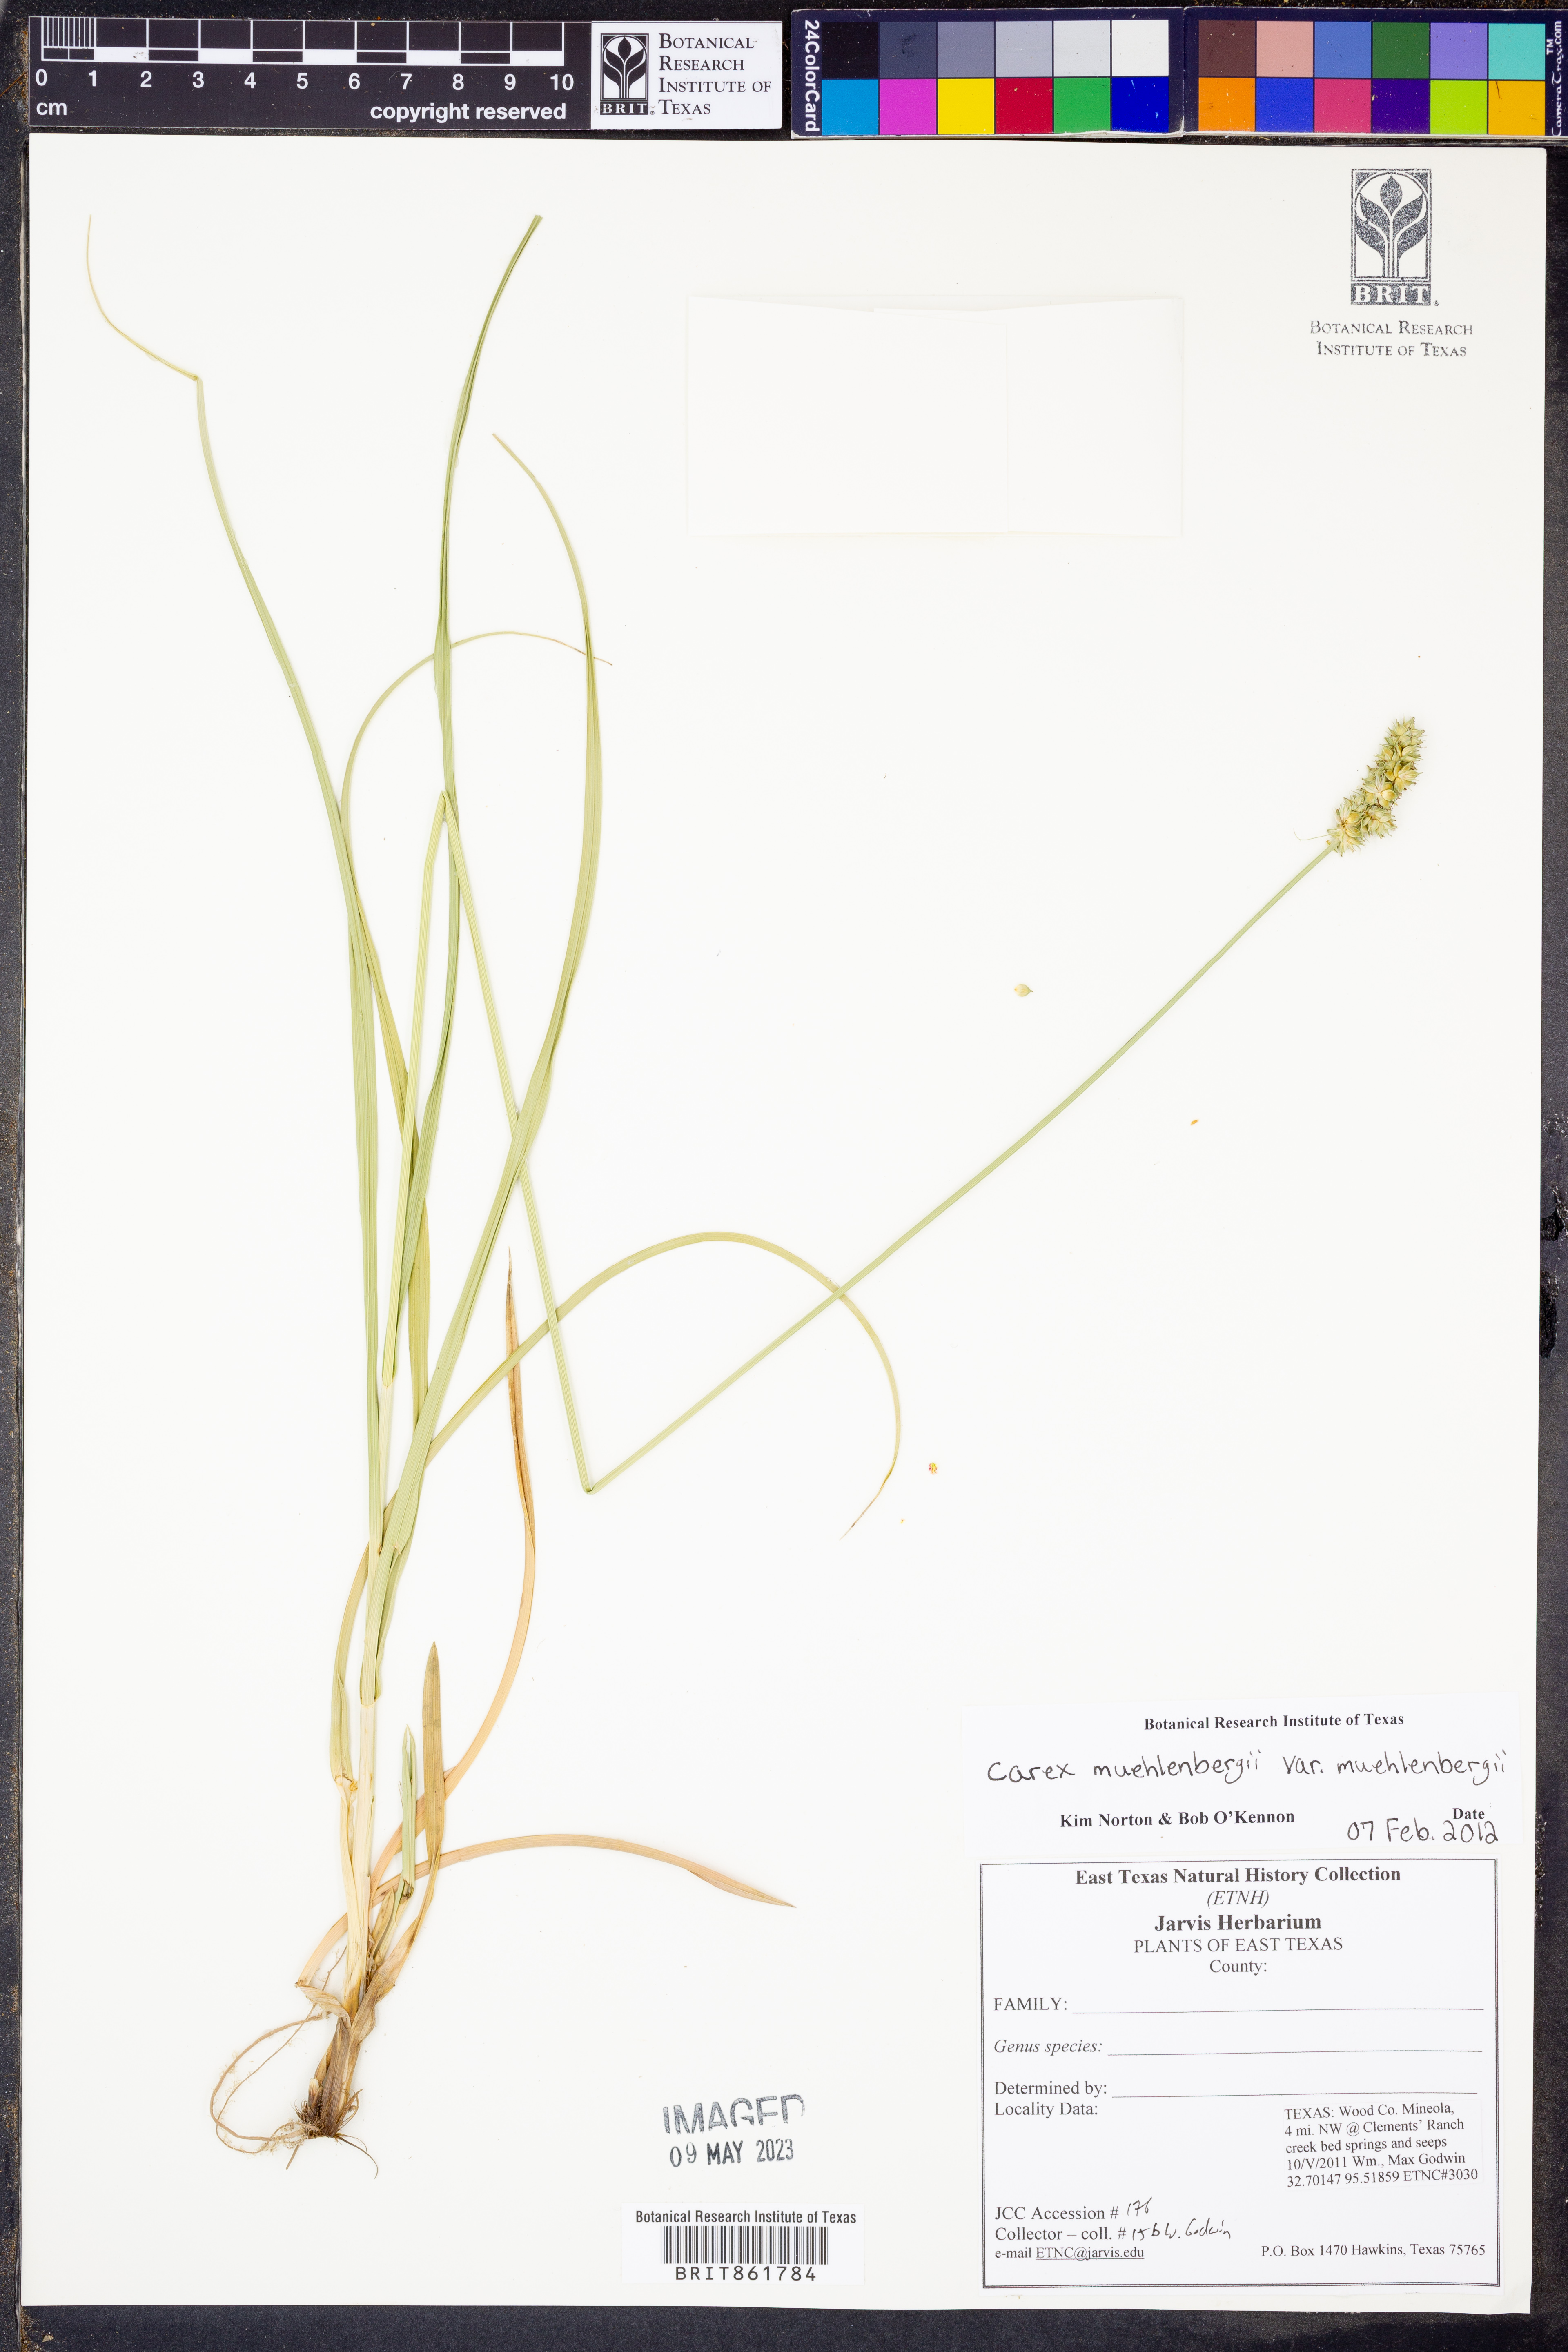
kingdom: Plantae
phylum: Tracheophyta
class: Liliopsida
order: Poales
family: Cyperaceae
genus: Carex
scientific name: Carex muehlenbergii
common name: Muhlenberg's bracted sedge
